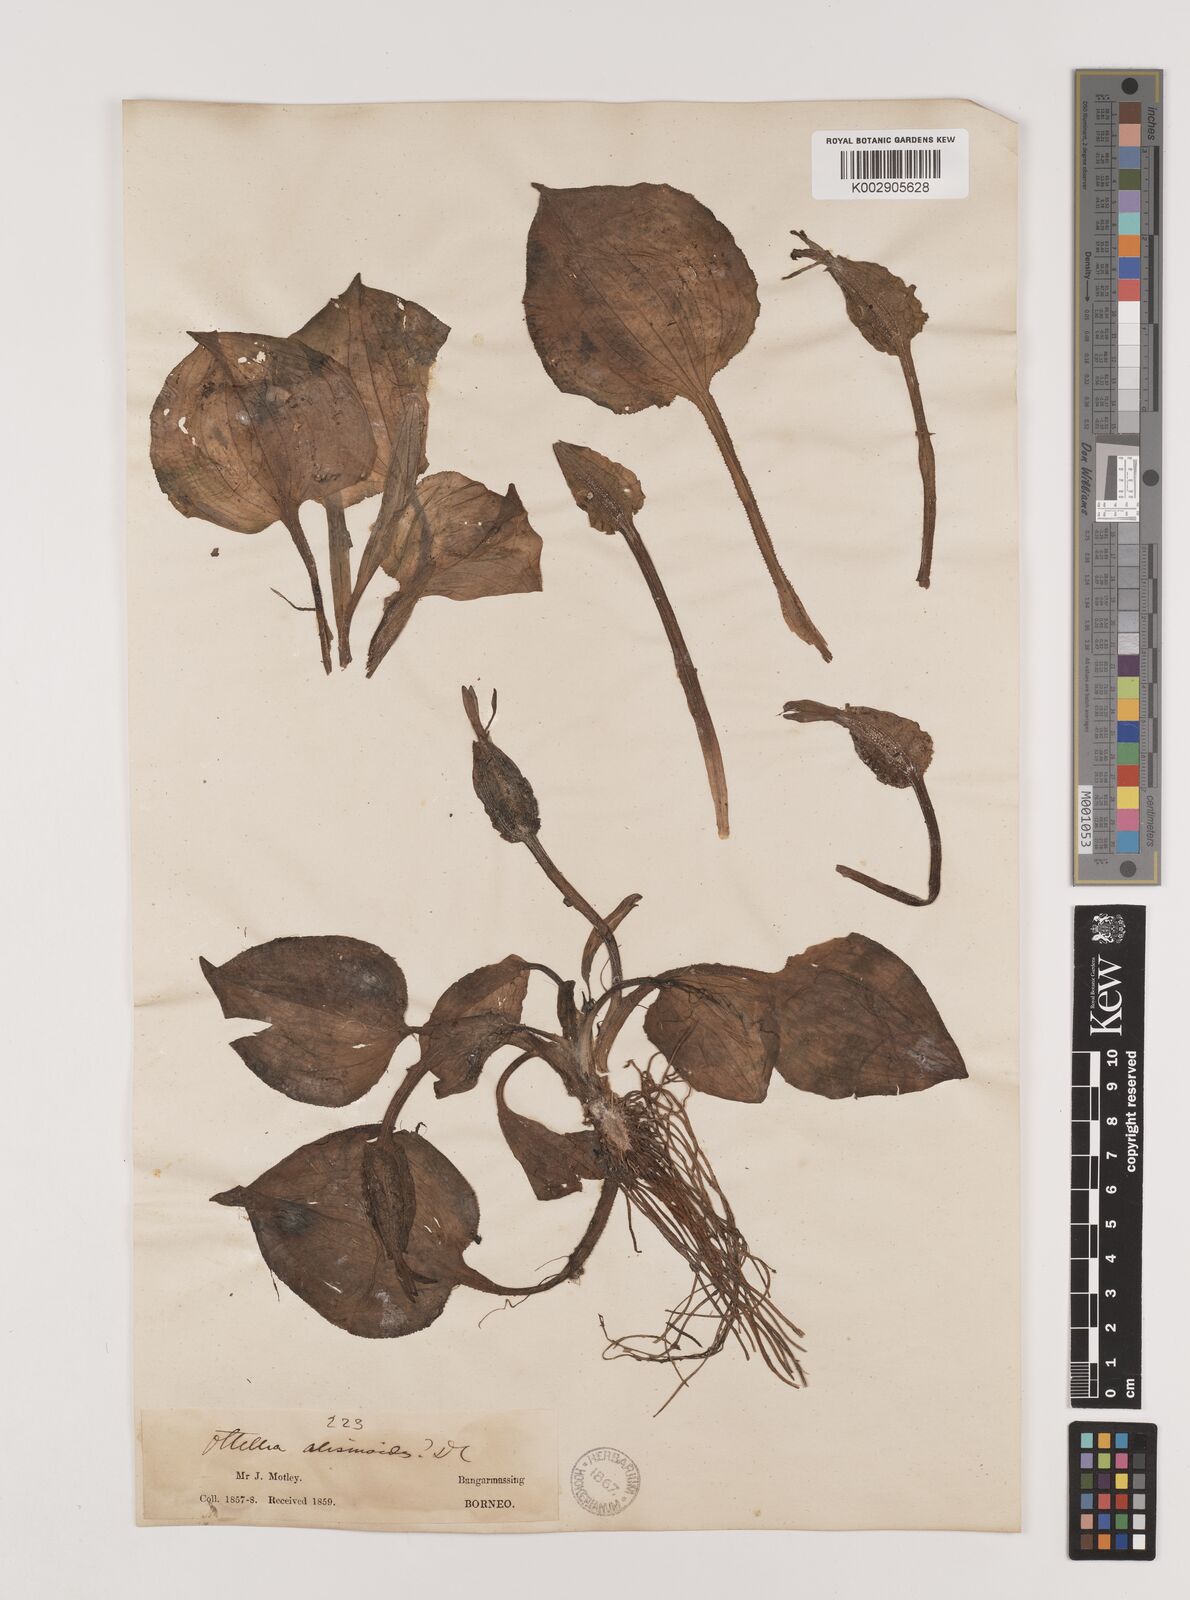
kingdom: Plantae
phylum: Tracheophyta
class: Liliopsida
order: Alismatales
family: Hydrocharitaceae
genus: Ottelia
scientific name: Ottelia alismoides
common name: Duck-lettuce
